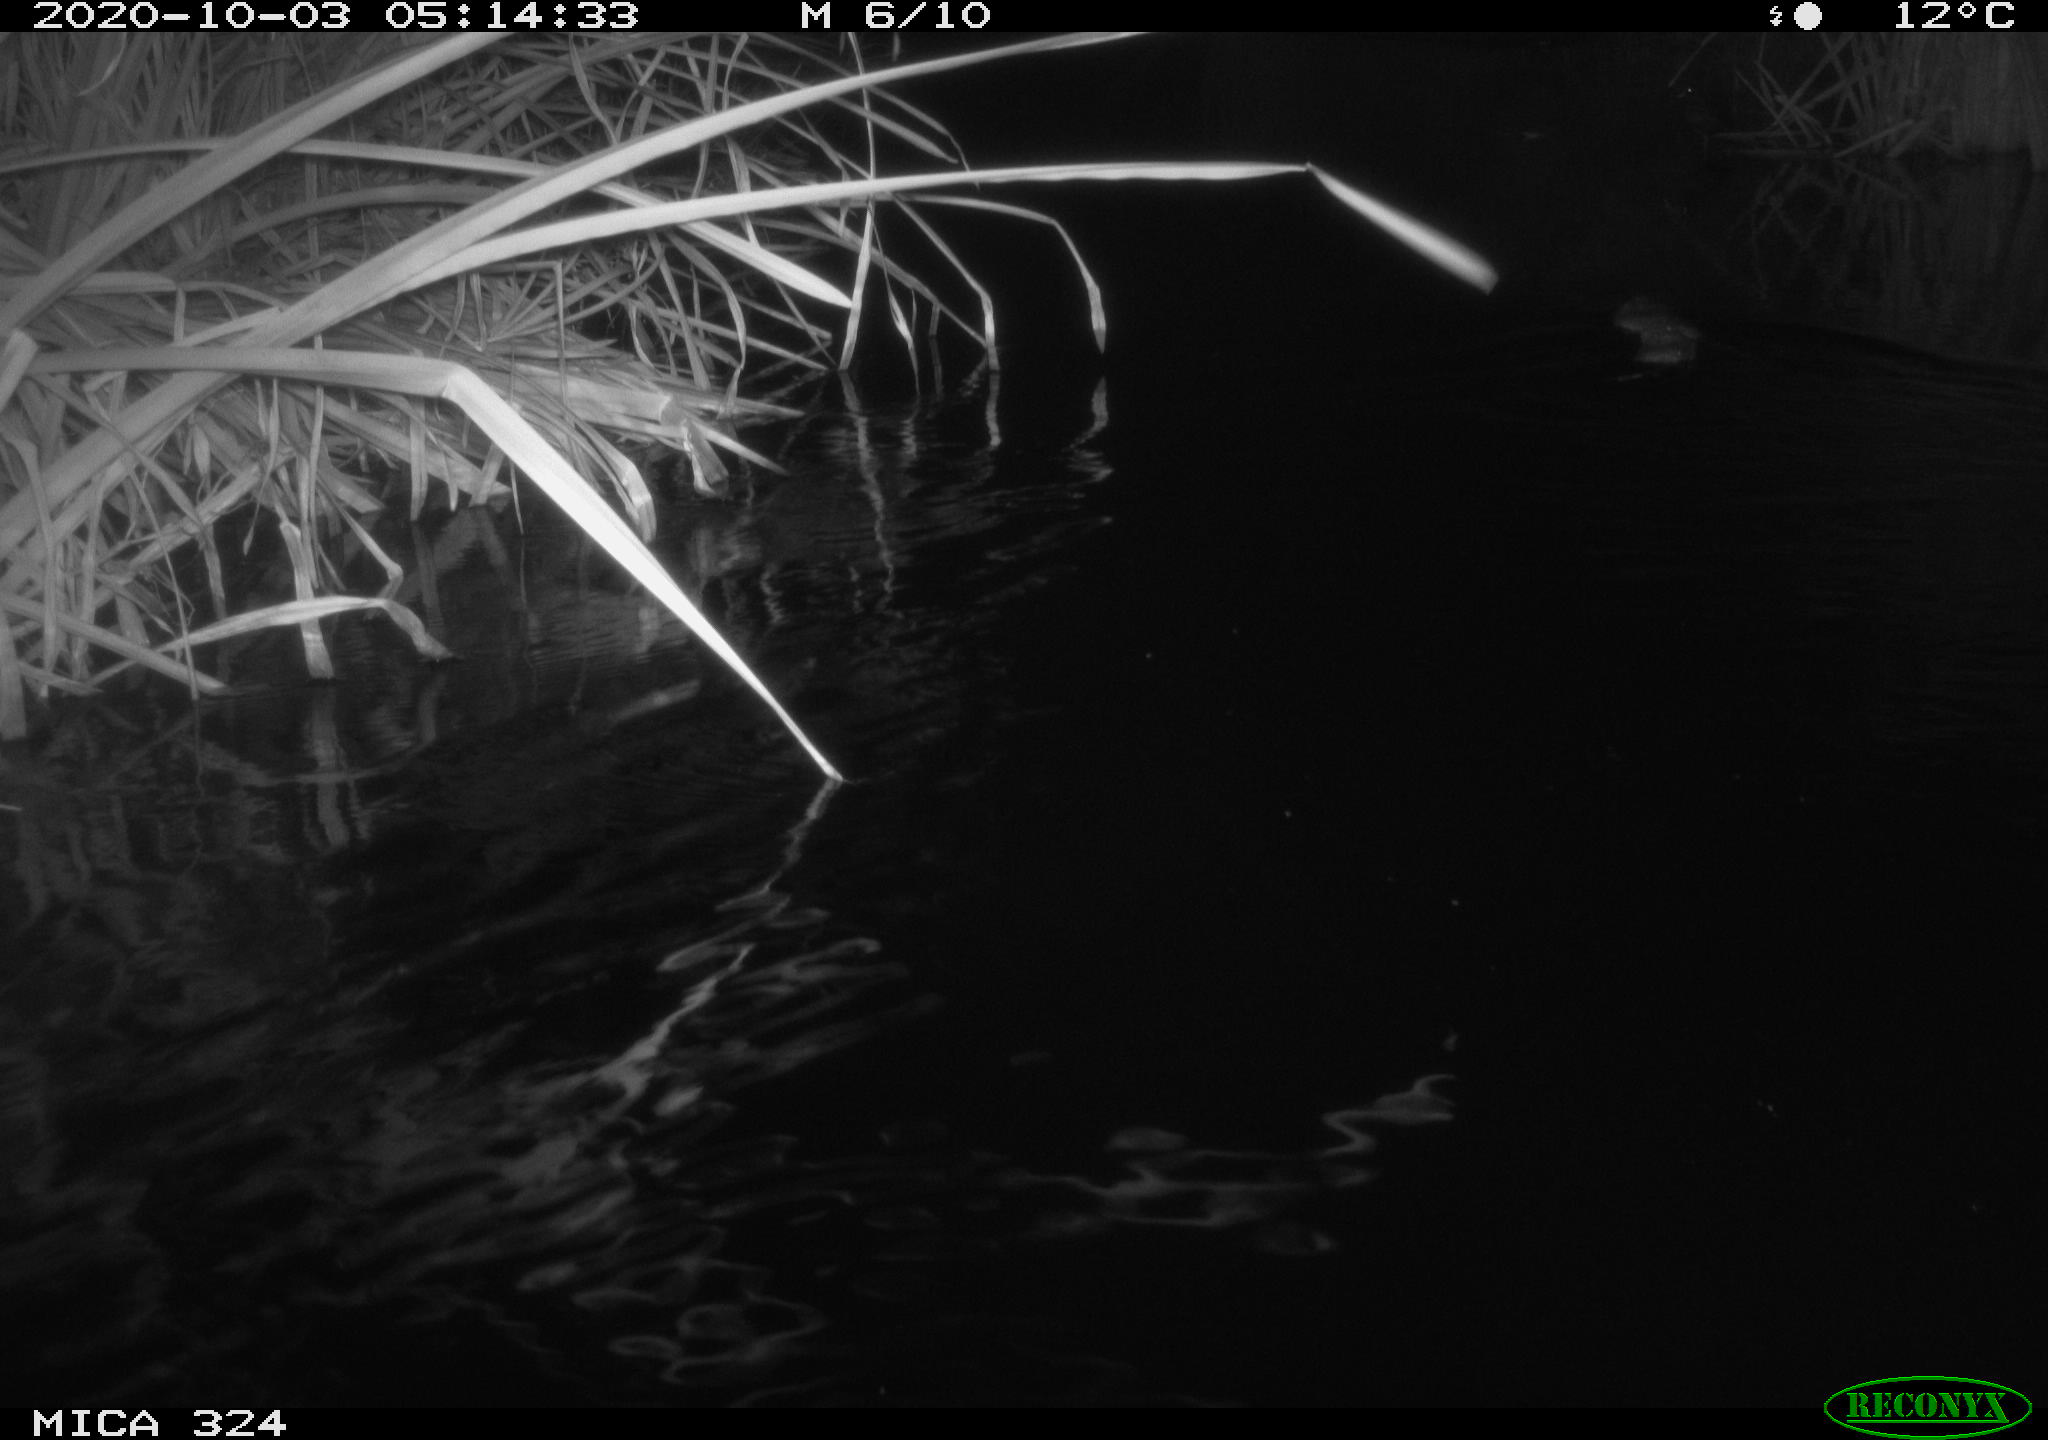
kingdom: Animalia
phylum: Chordata
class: Mammalia
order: Rodentia
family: Myocastoridae
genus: Myocastor
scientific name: Myocastor coypus
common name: Coypu
